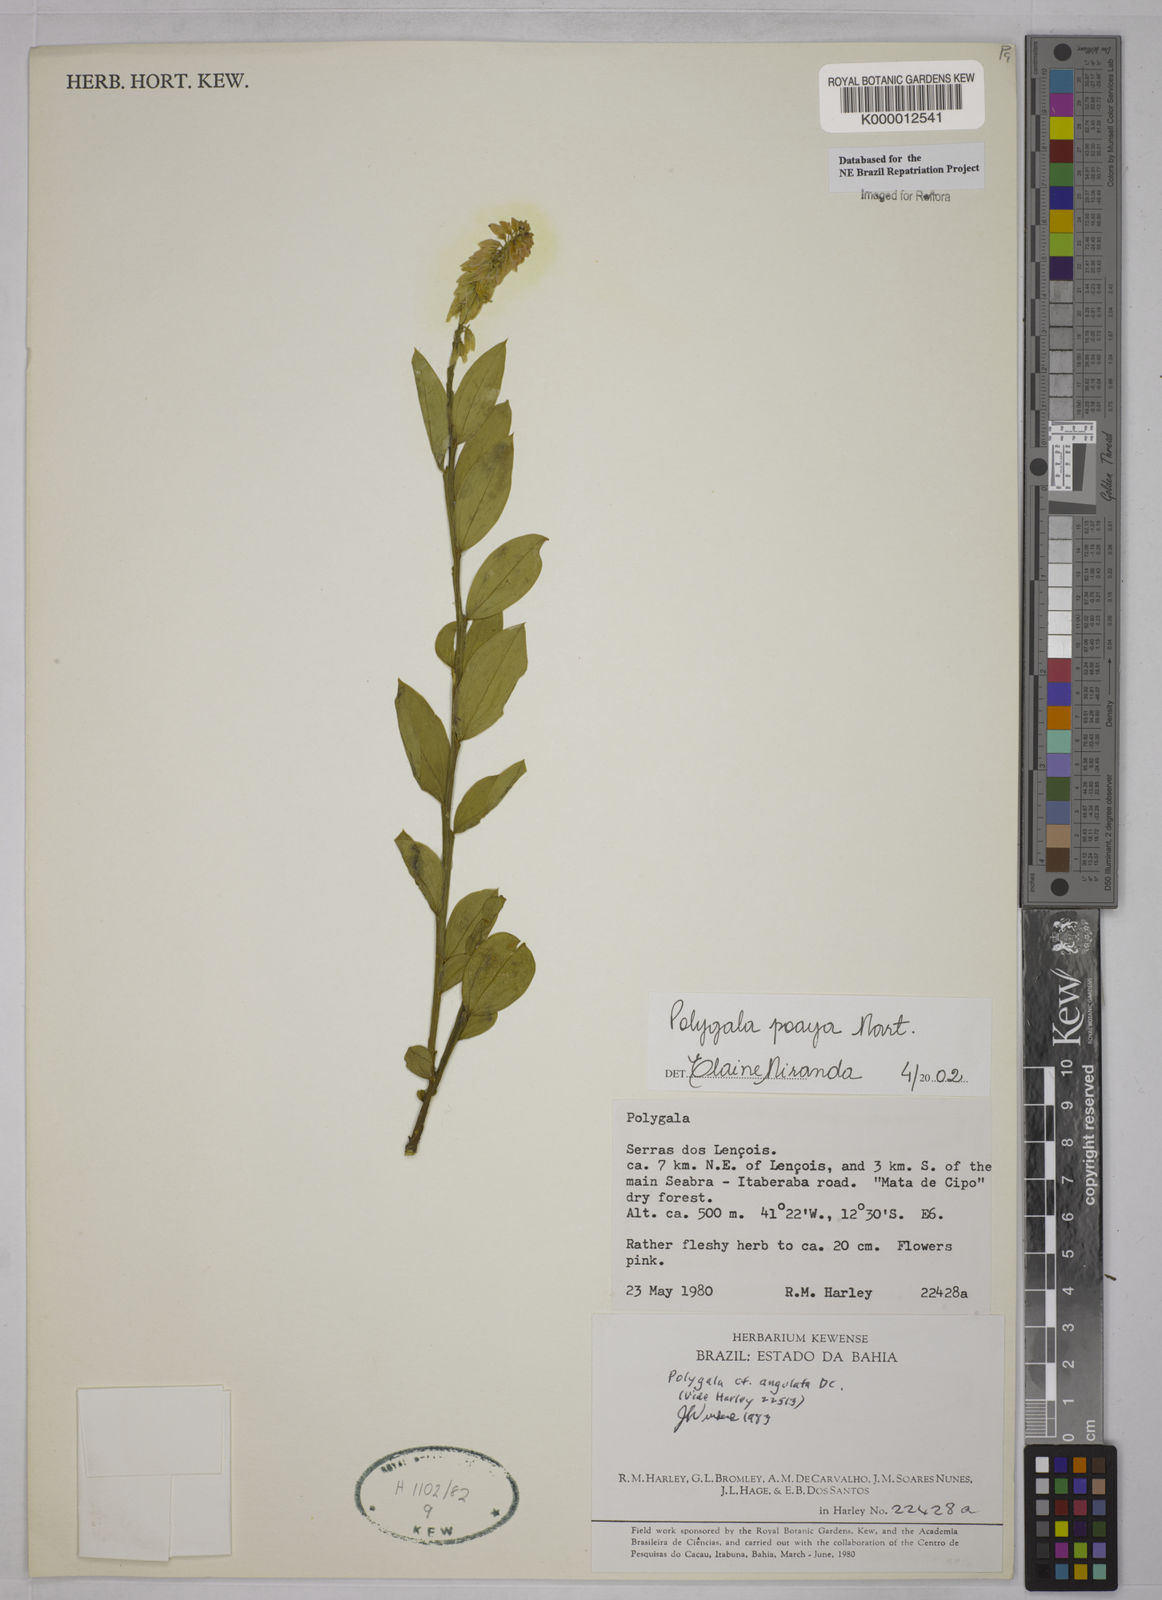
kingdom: Plantae
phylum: Tracheophyta
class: Magnoliopsida
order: Fabales
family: Polygalaceae
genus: Polygala
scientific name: Polygala poaya
